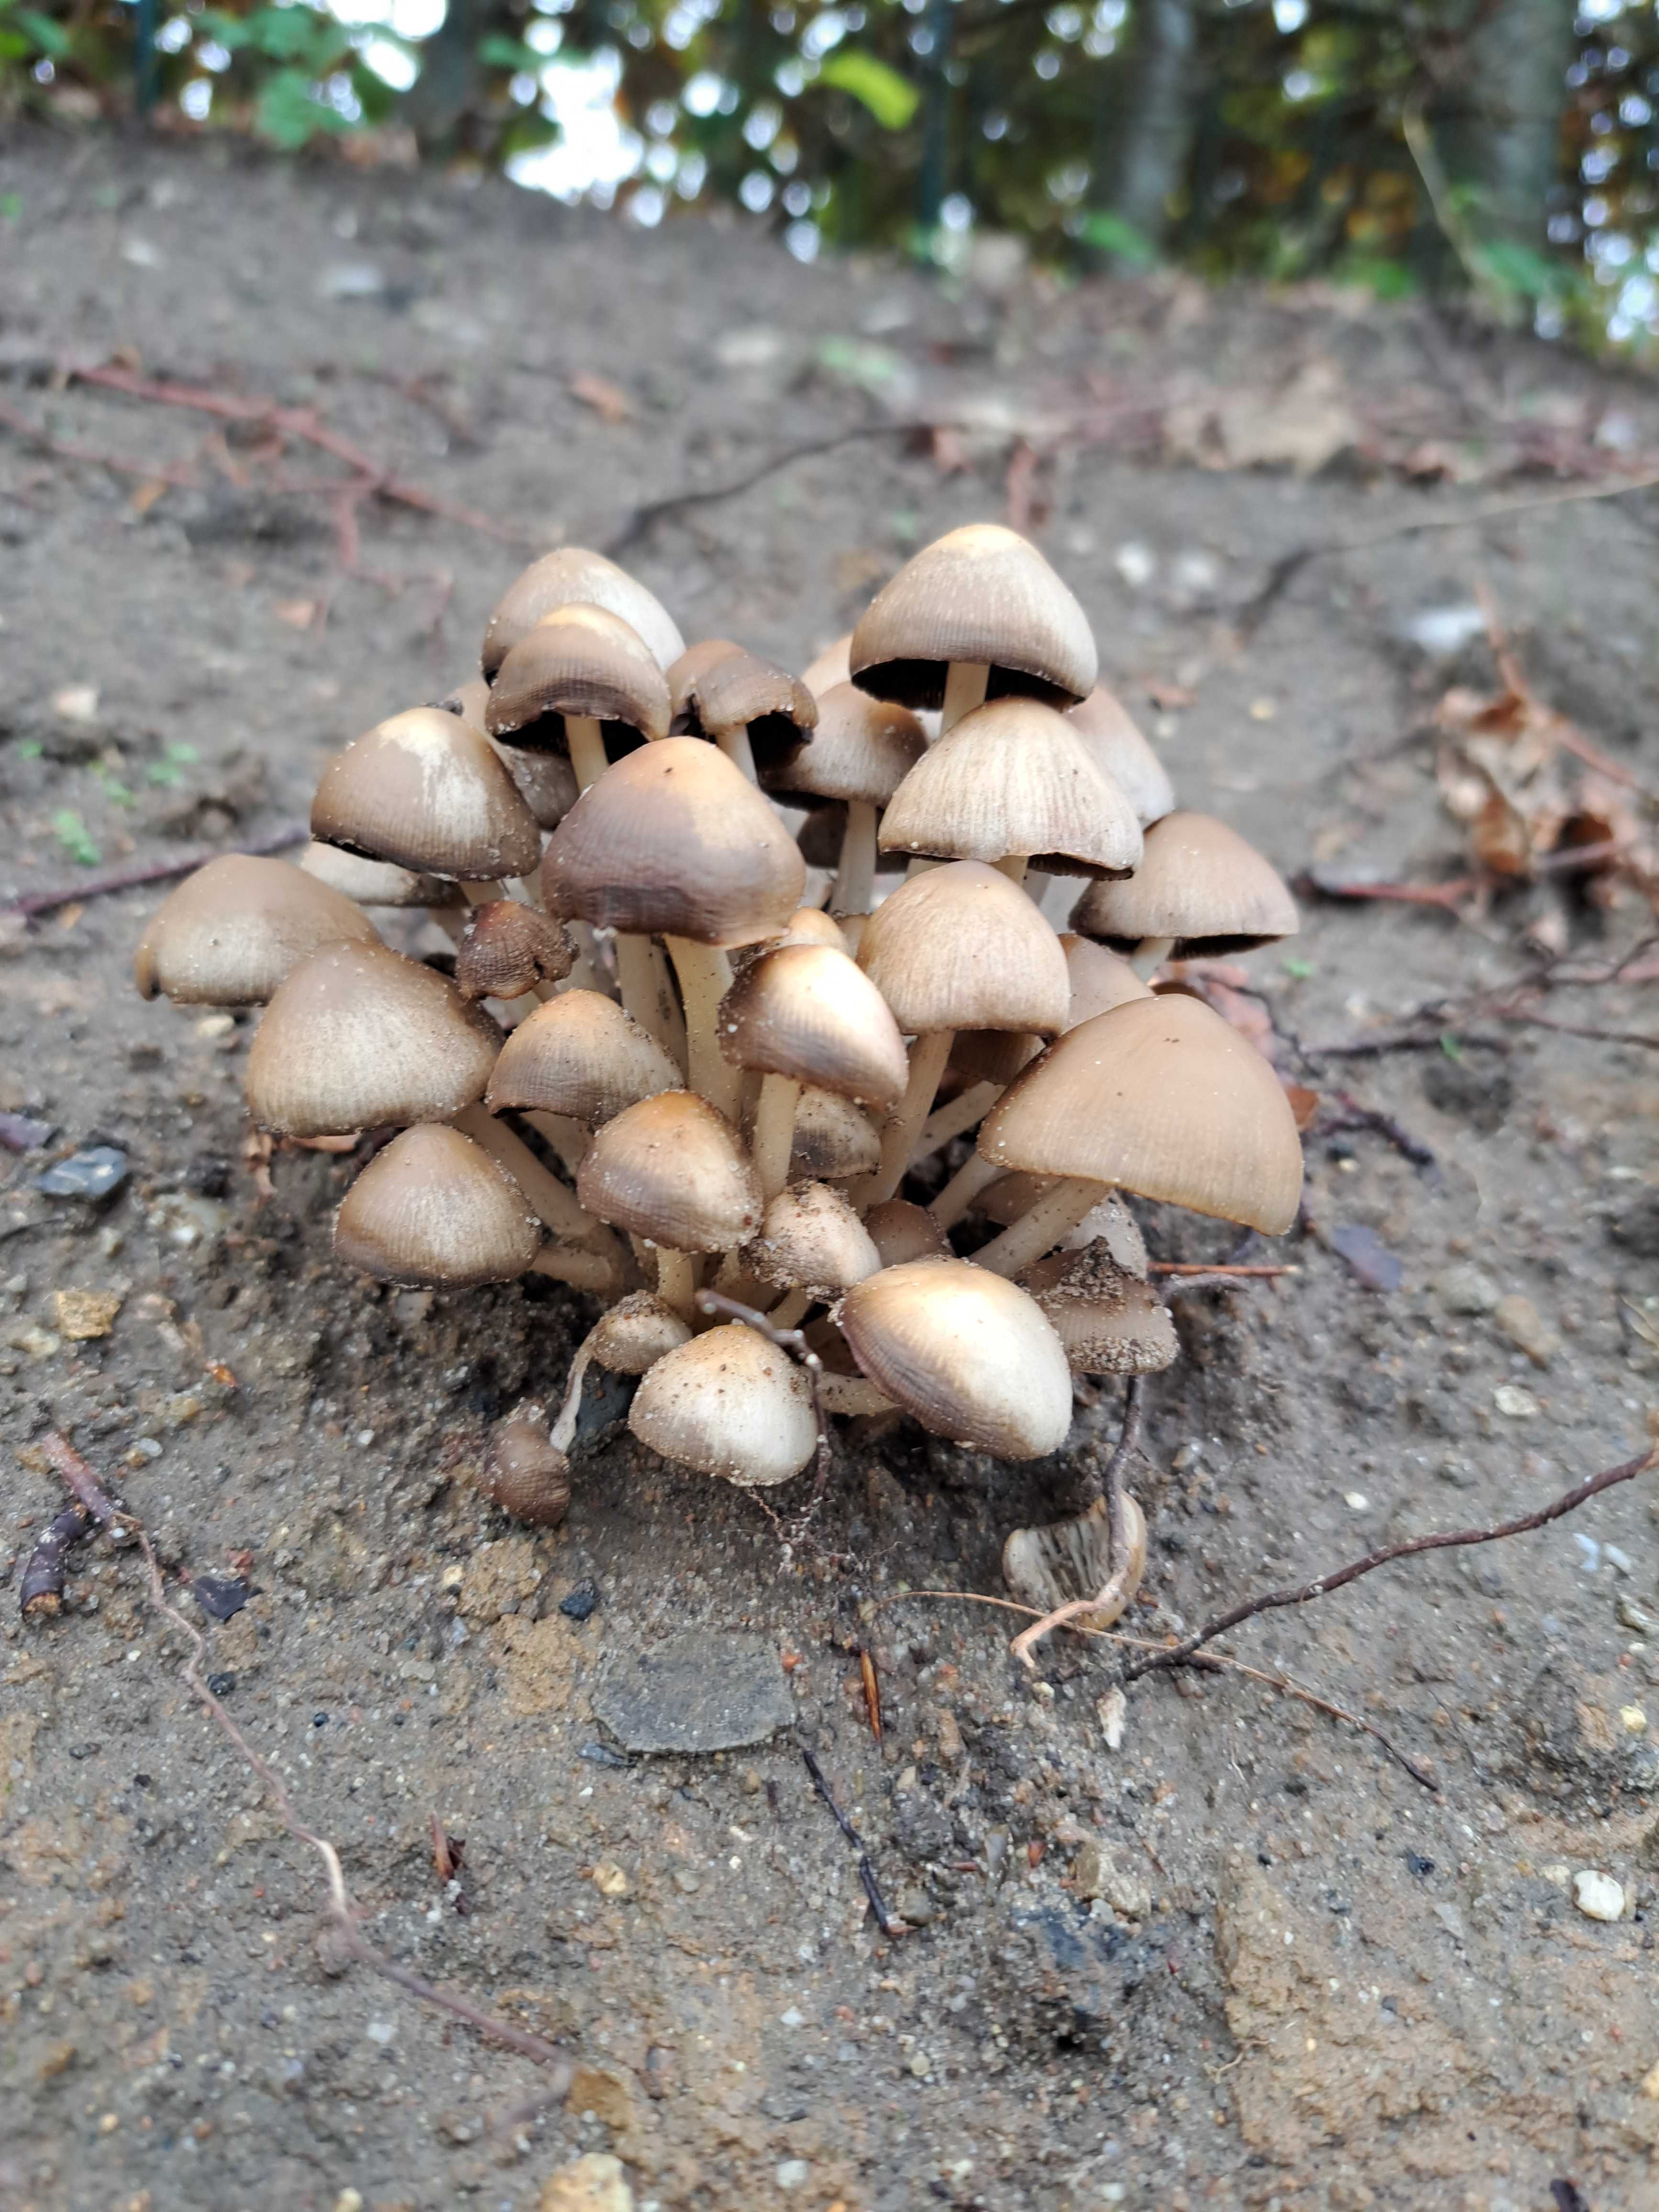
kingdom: Fungi
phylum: Basidiomycota
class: Agaricomycetes
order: Agaricales
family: Psathyrellaceae
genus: Psathyrella
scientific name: Psathyrella
